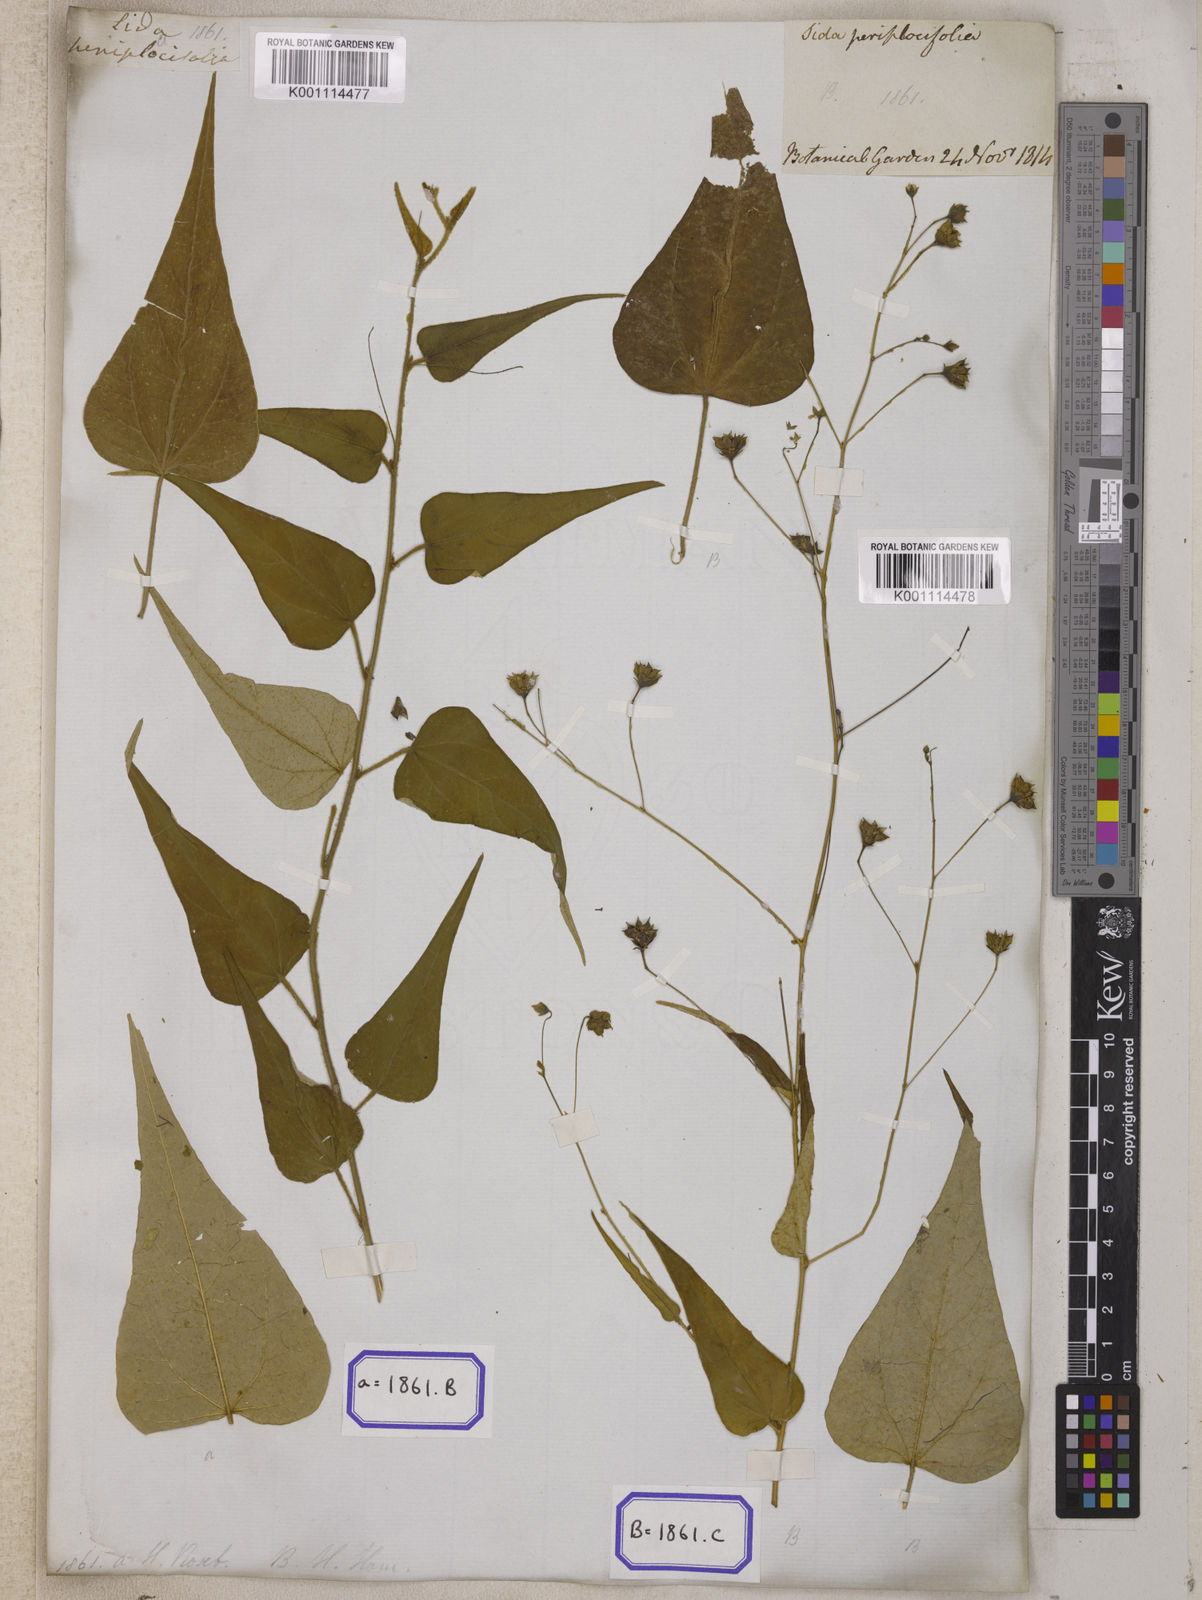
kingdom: Plantae
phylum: Tracheophyta
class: Magnoliopsida
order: Malvales
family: Malvaceae
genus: Wissadula
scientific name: Wissadula periplocifolia
